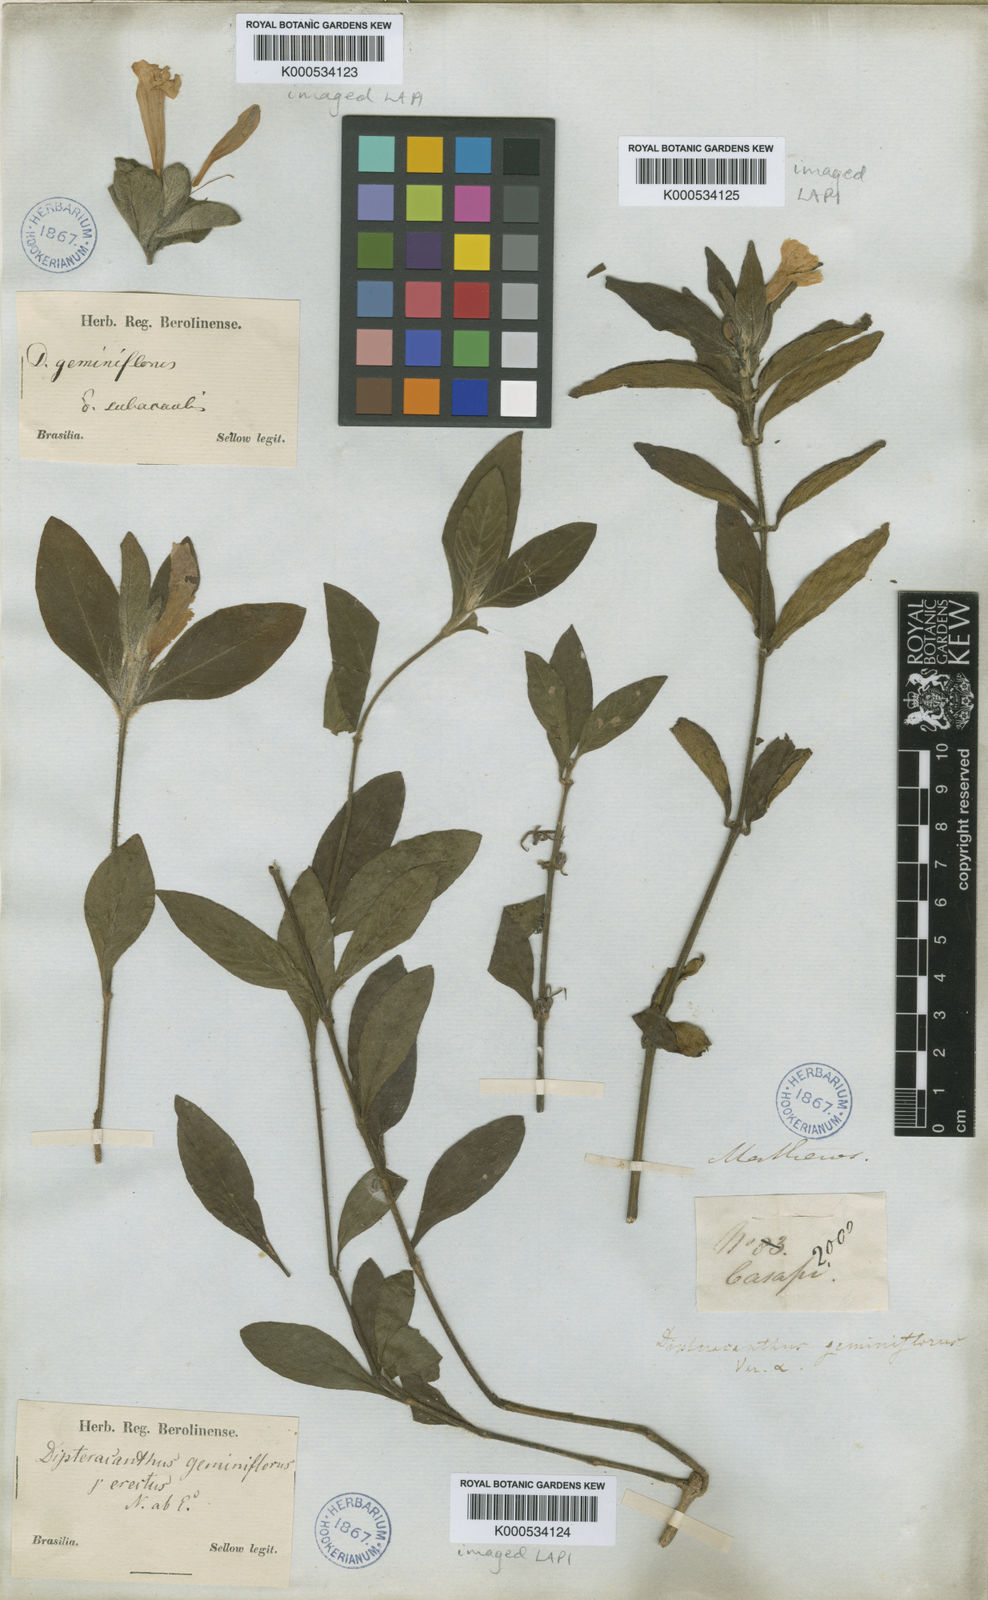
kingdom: Plantae
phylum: Tracheophyta
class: Magnoliopsida
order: Lamiales
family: Acanthaceae
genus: Ruellia
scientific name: Ruellia geminiflora
